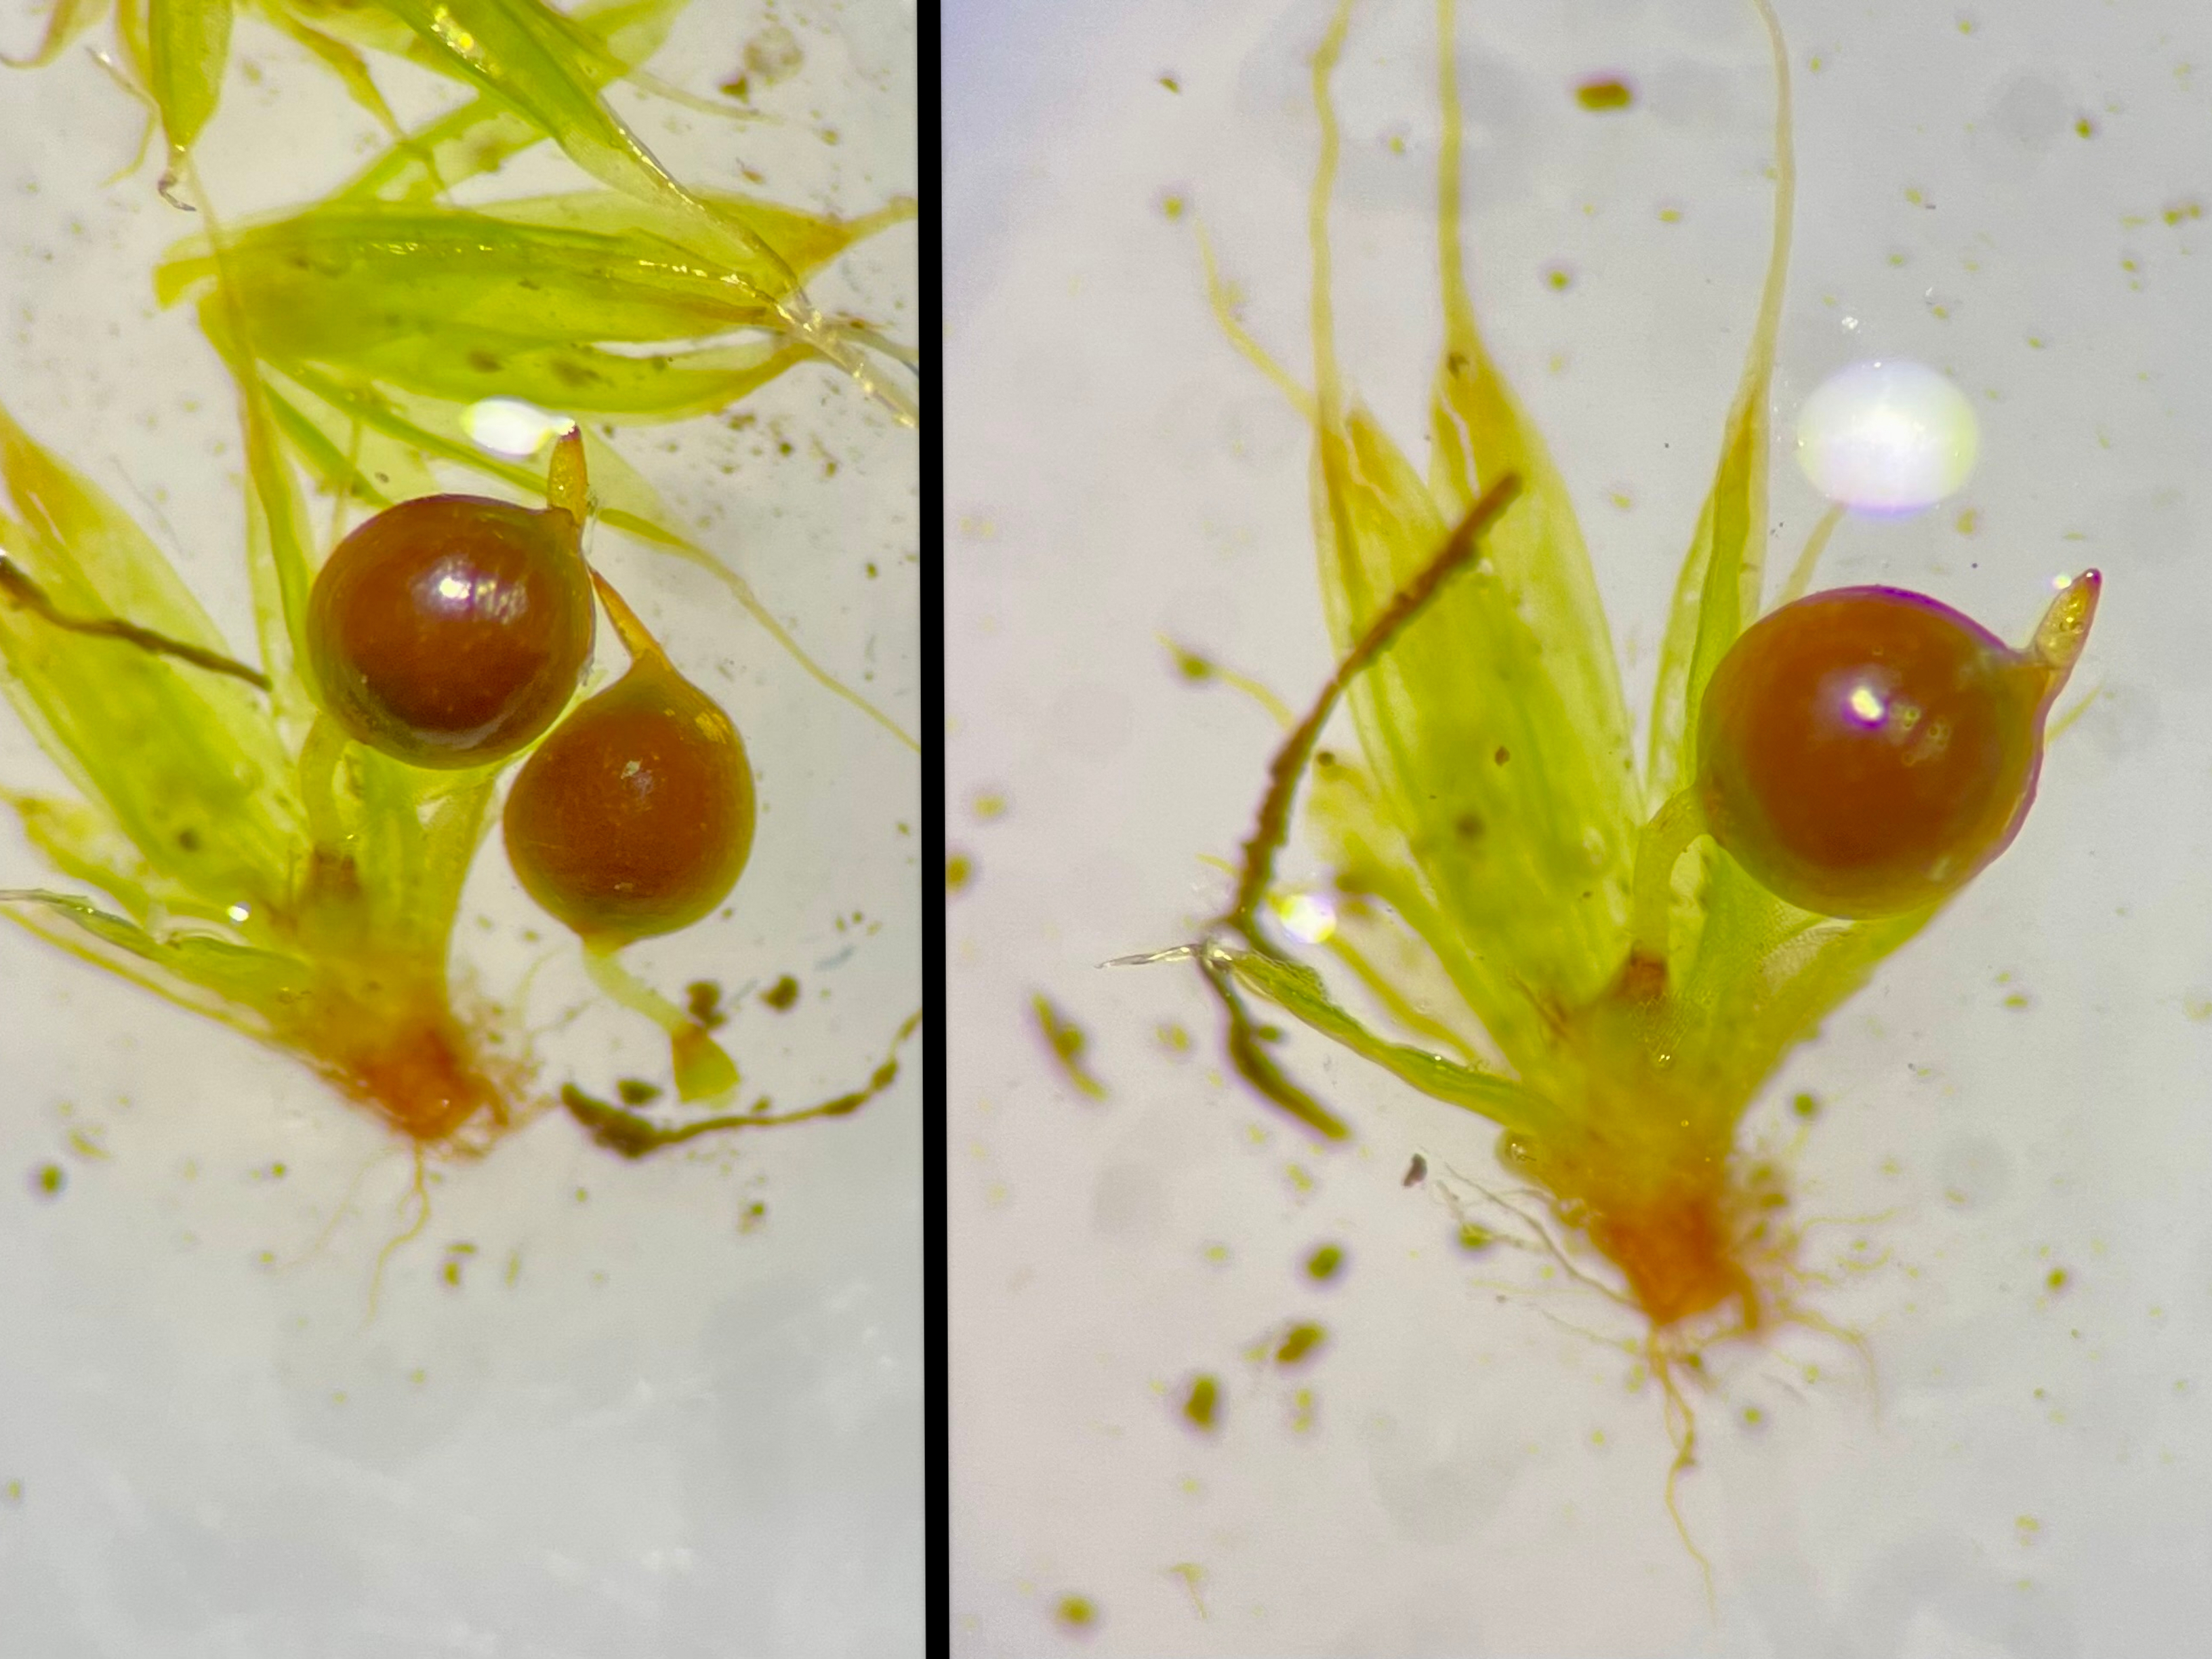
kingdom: Plantae
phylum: Bryophyta
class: Bryopsida
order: Pottiales
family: Pottiaceae
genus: Tortula
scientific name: Tortula acaulon
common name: Tilspidset dværgmos
